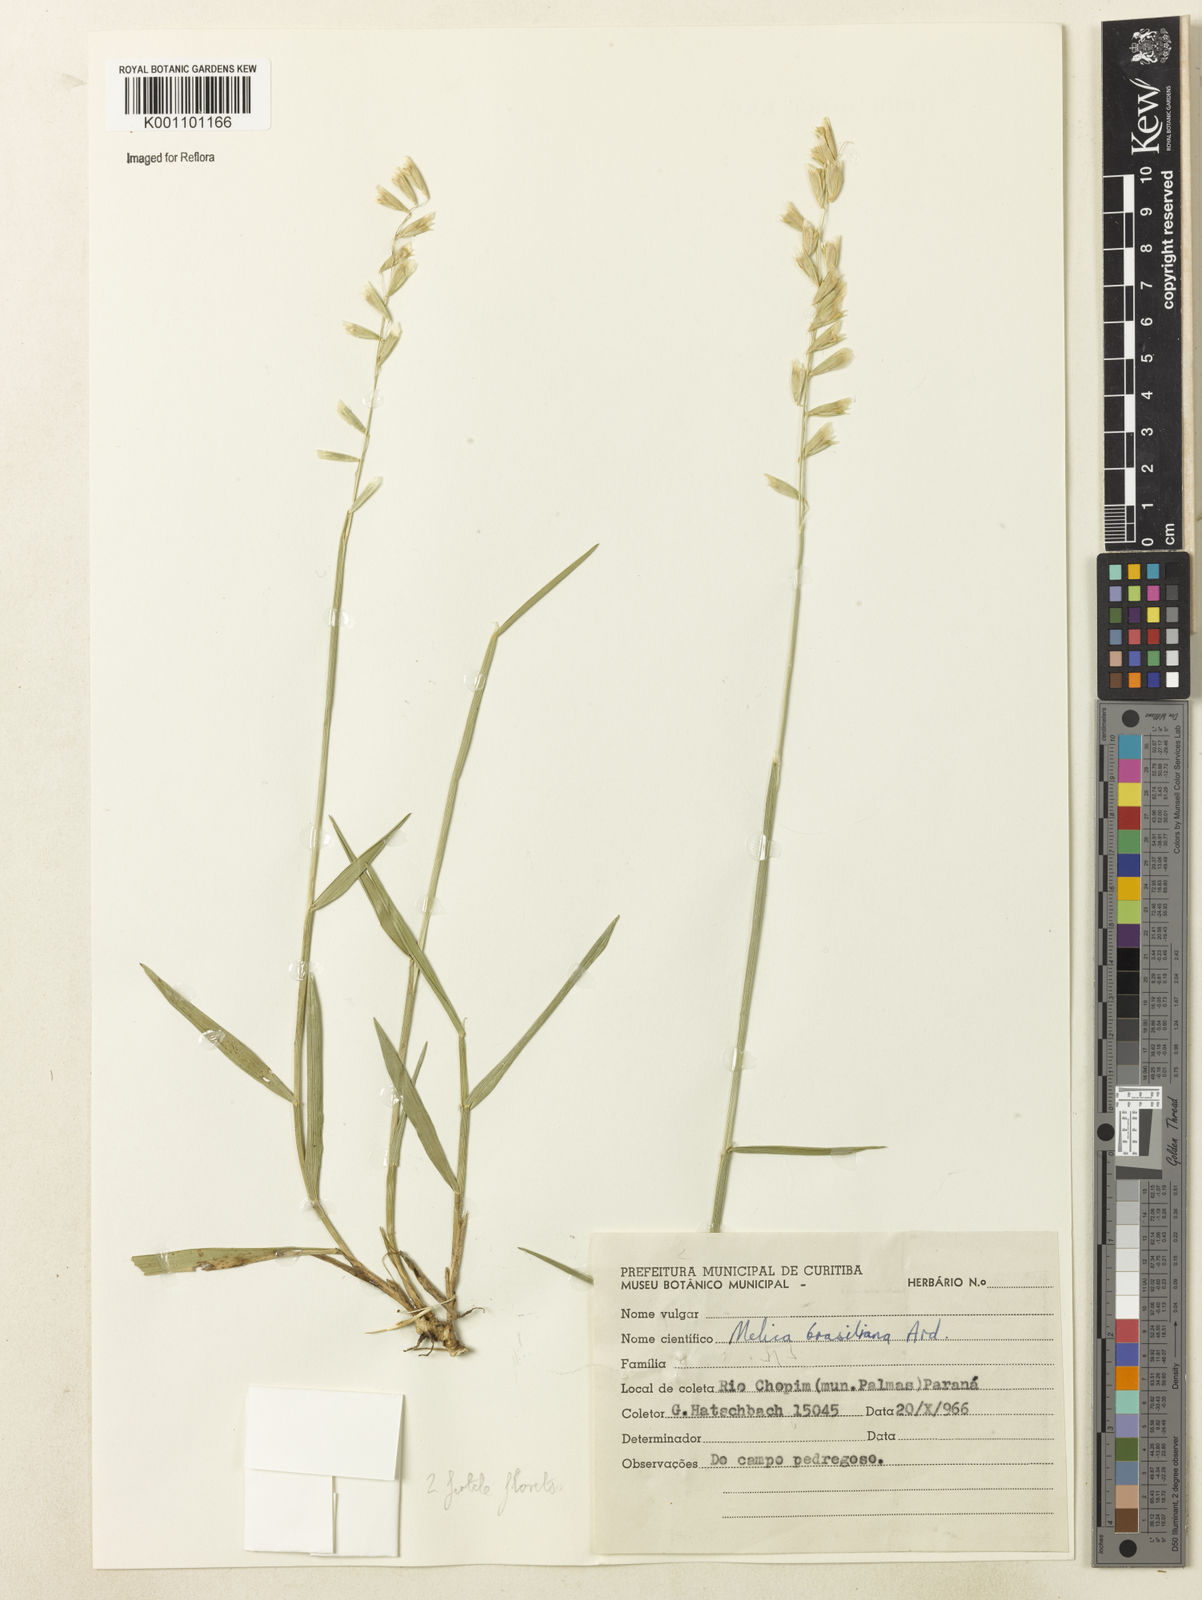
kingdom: Plantae
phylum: Tracheophyta
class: Liliopsida
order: Poales
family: Poaceae
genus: Melica
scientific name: Melica brasiliana
